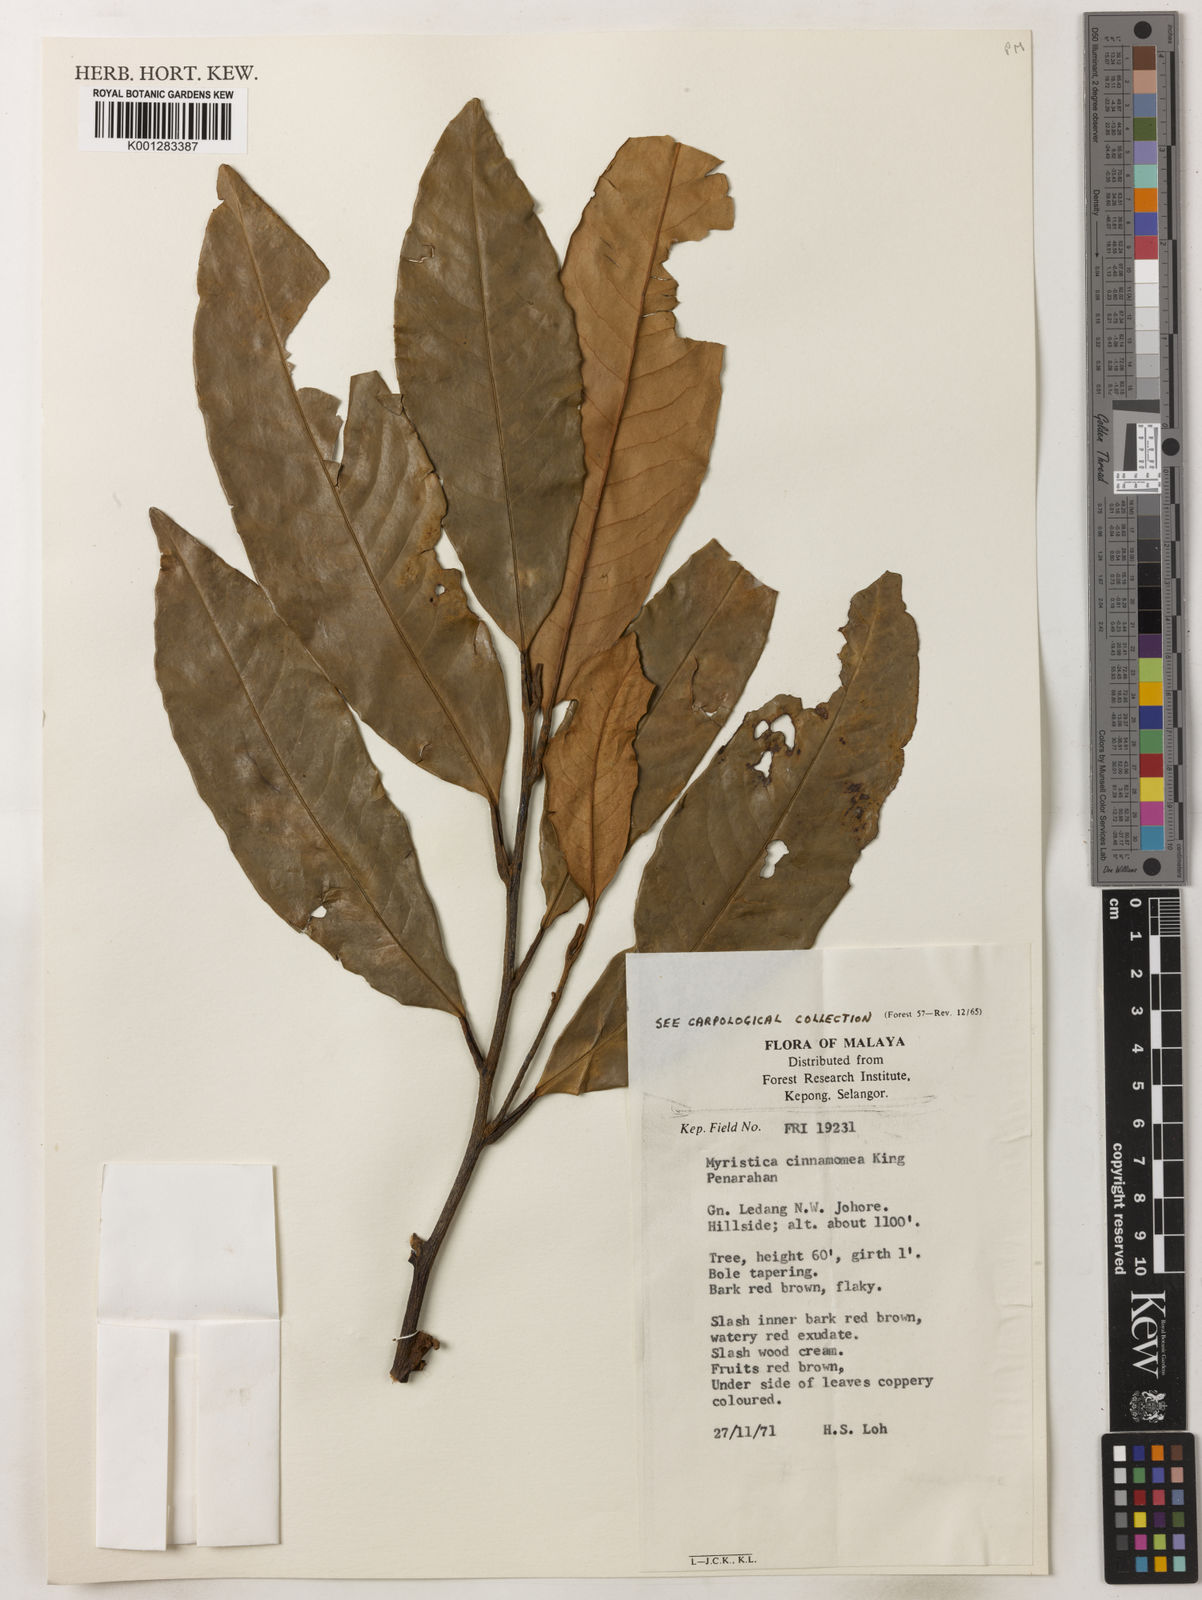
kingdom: Plantae
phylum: Tracheophyta
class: Magnoliopsida
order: Magnoliales
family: Myristicaceae
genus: Myristica
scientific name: Myristica cinnamomea
